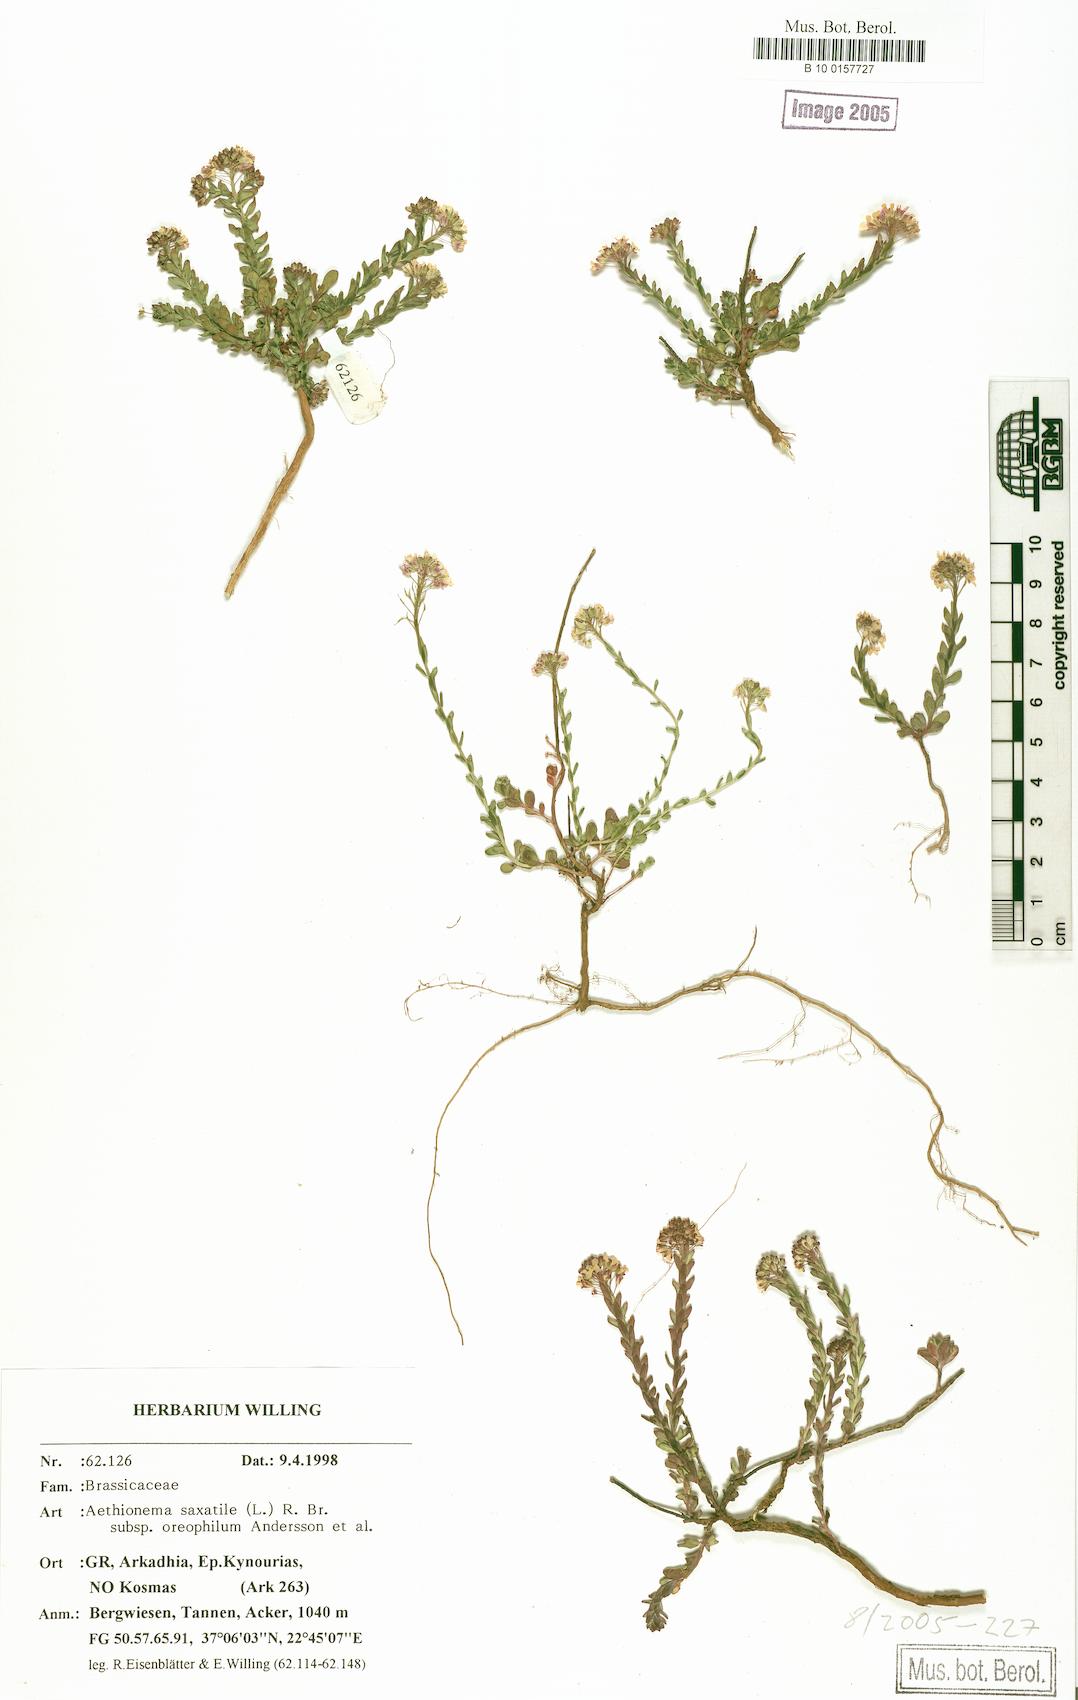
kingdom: Plantae
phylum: Tracheophyta
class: Magnoliopsida
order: Brassicales
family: Brassicaceae
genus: Aethionema
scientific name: Aethionema saxatile
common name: Burnt candytuft
